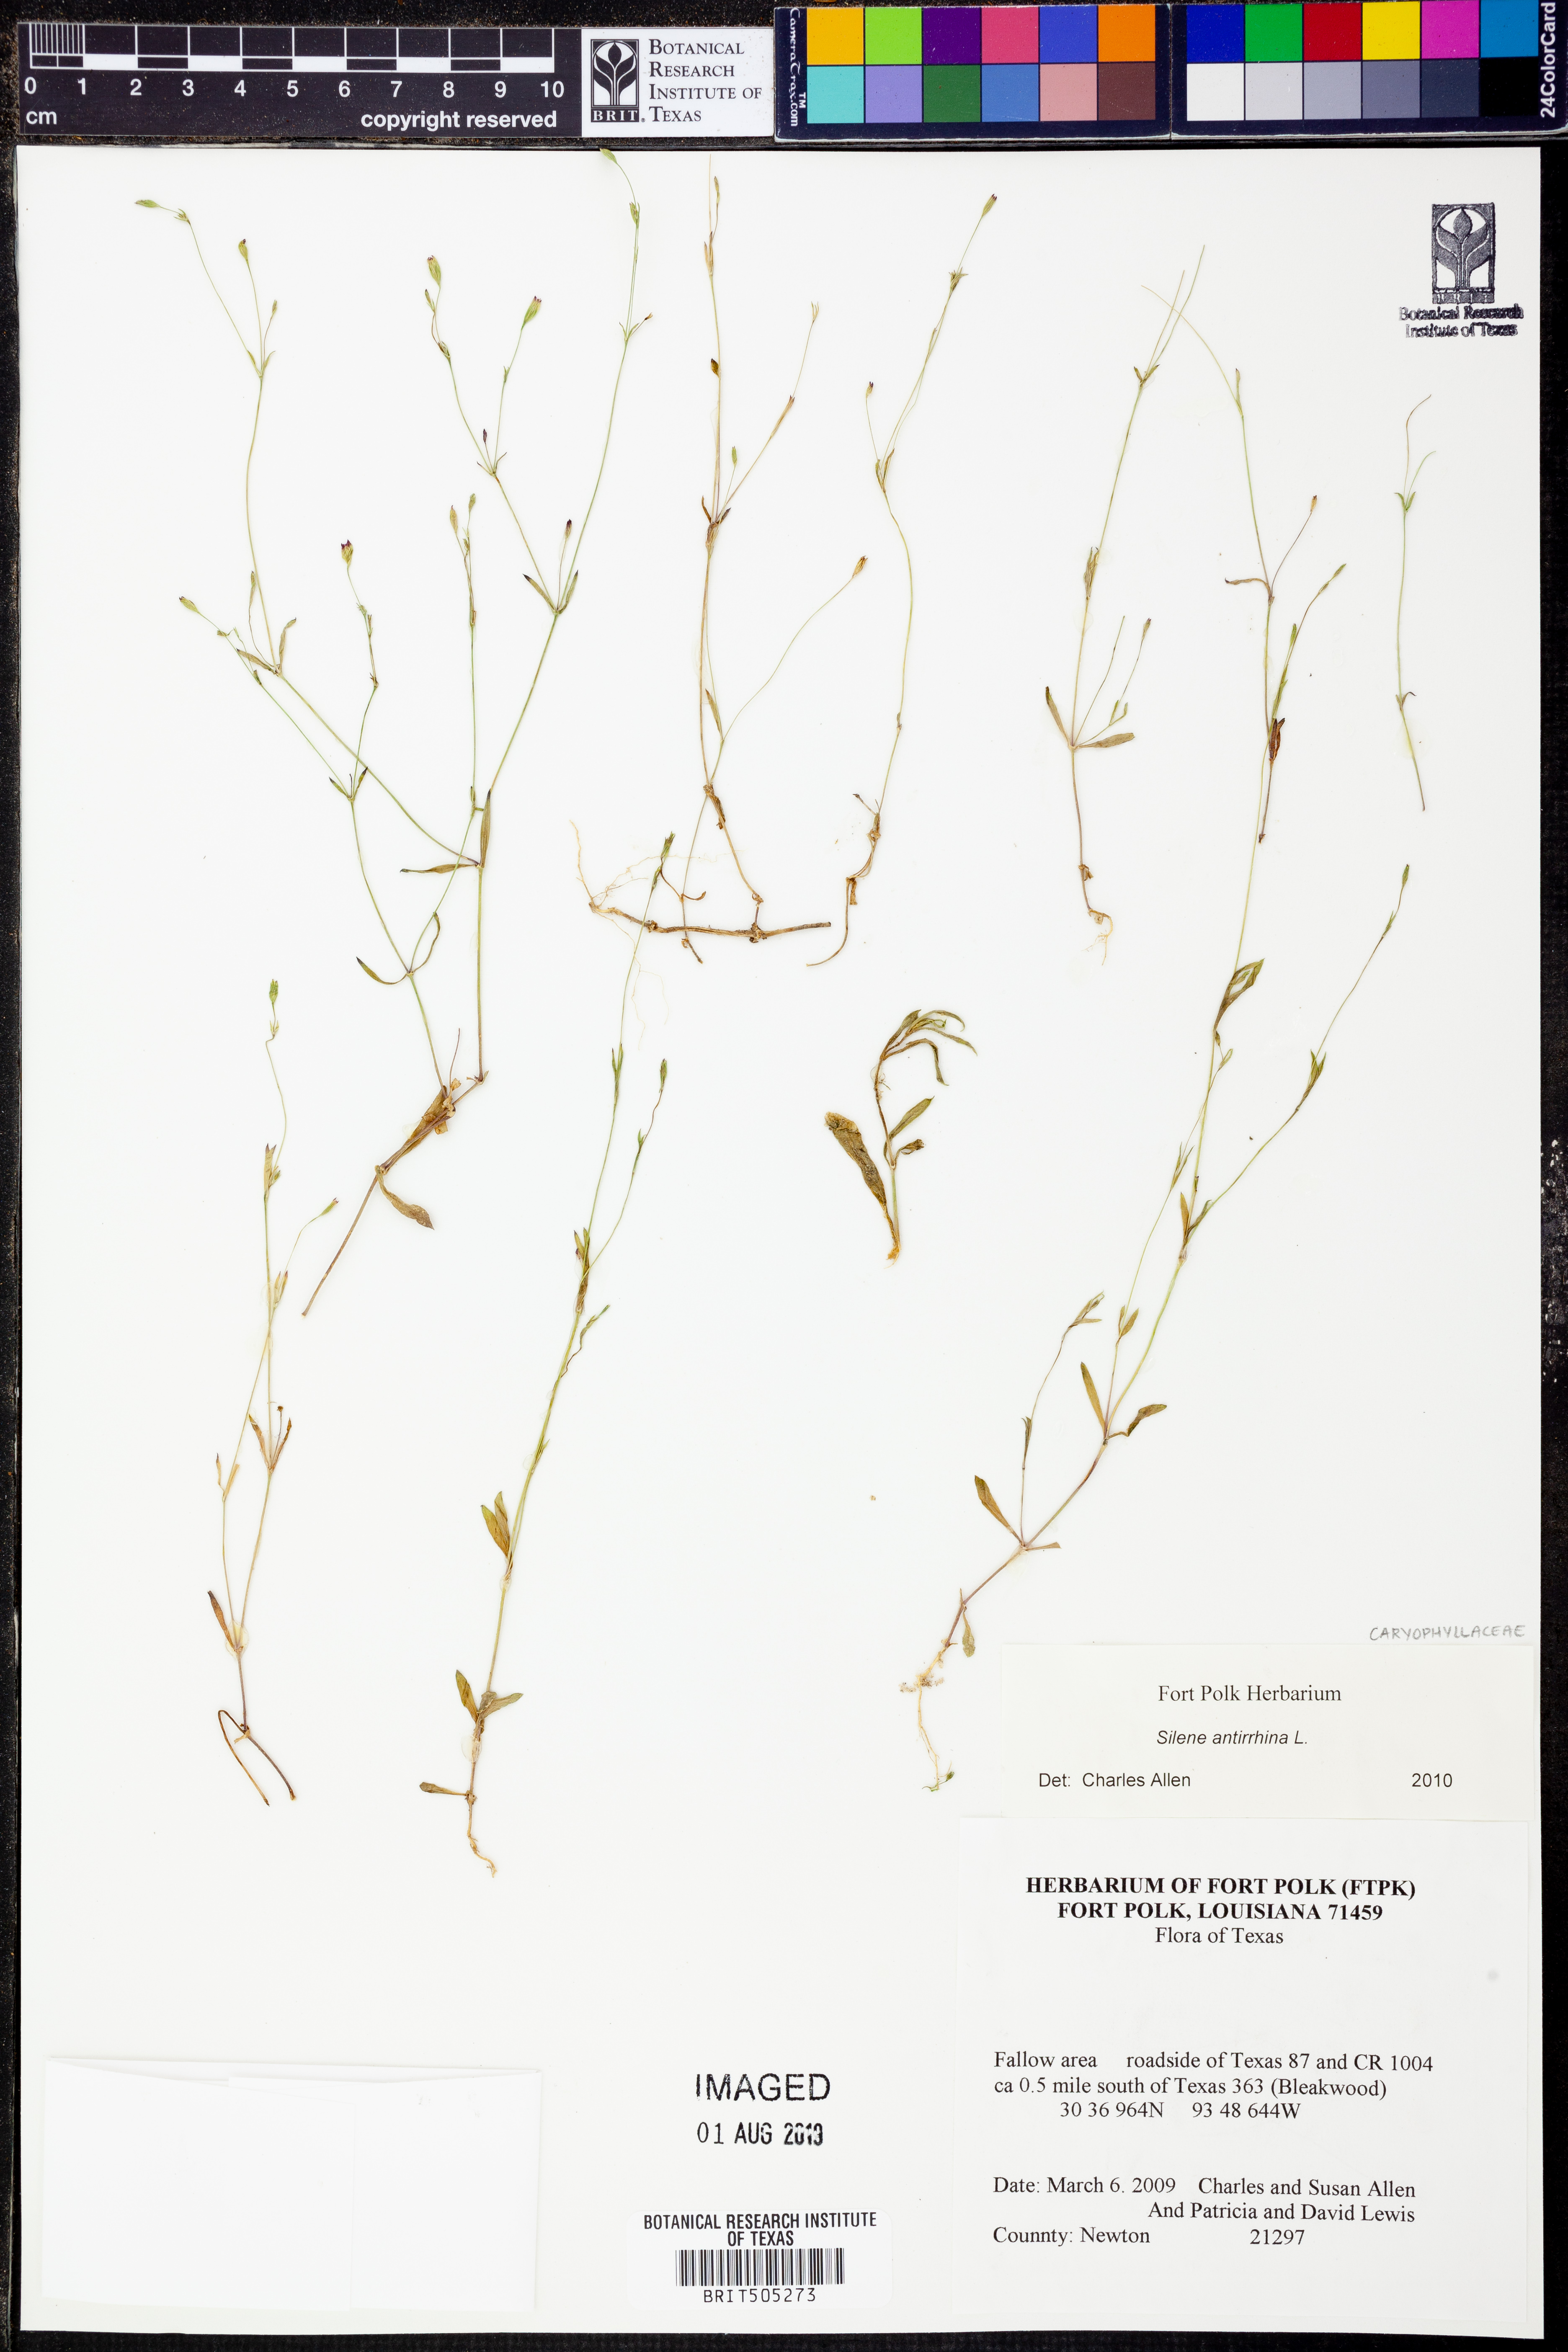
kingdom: Plantae
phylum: Tracheophyta
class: Magnoliopsida
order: Caryophyllales
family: Caryophyllaceae
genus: Silene
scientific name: Silene antirrhina
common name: Sleepy catchfly
